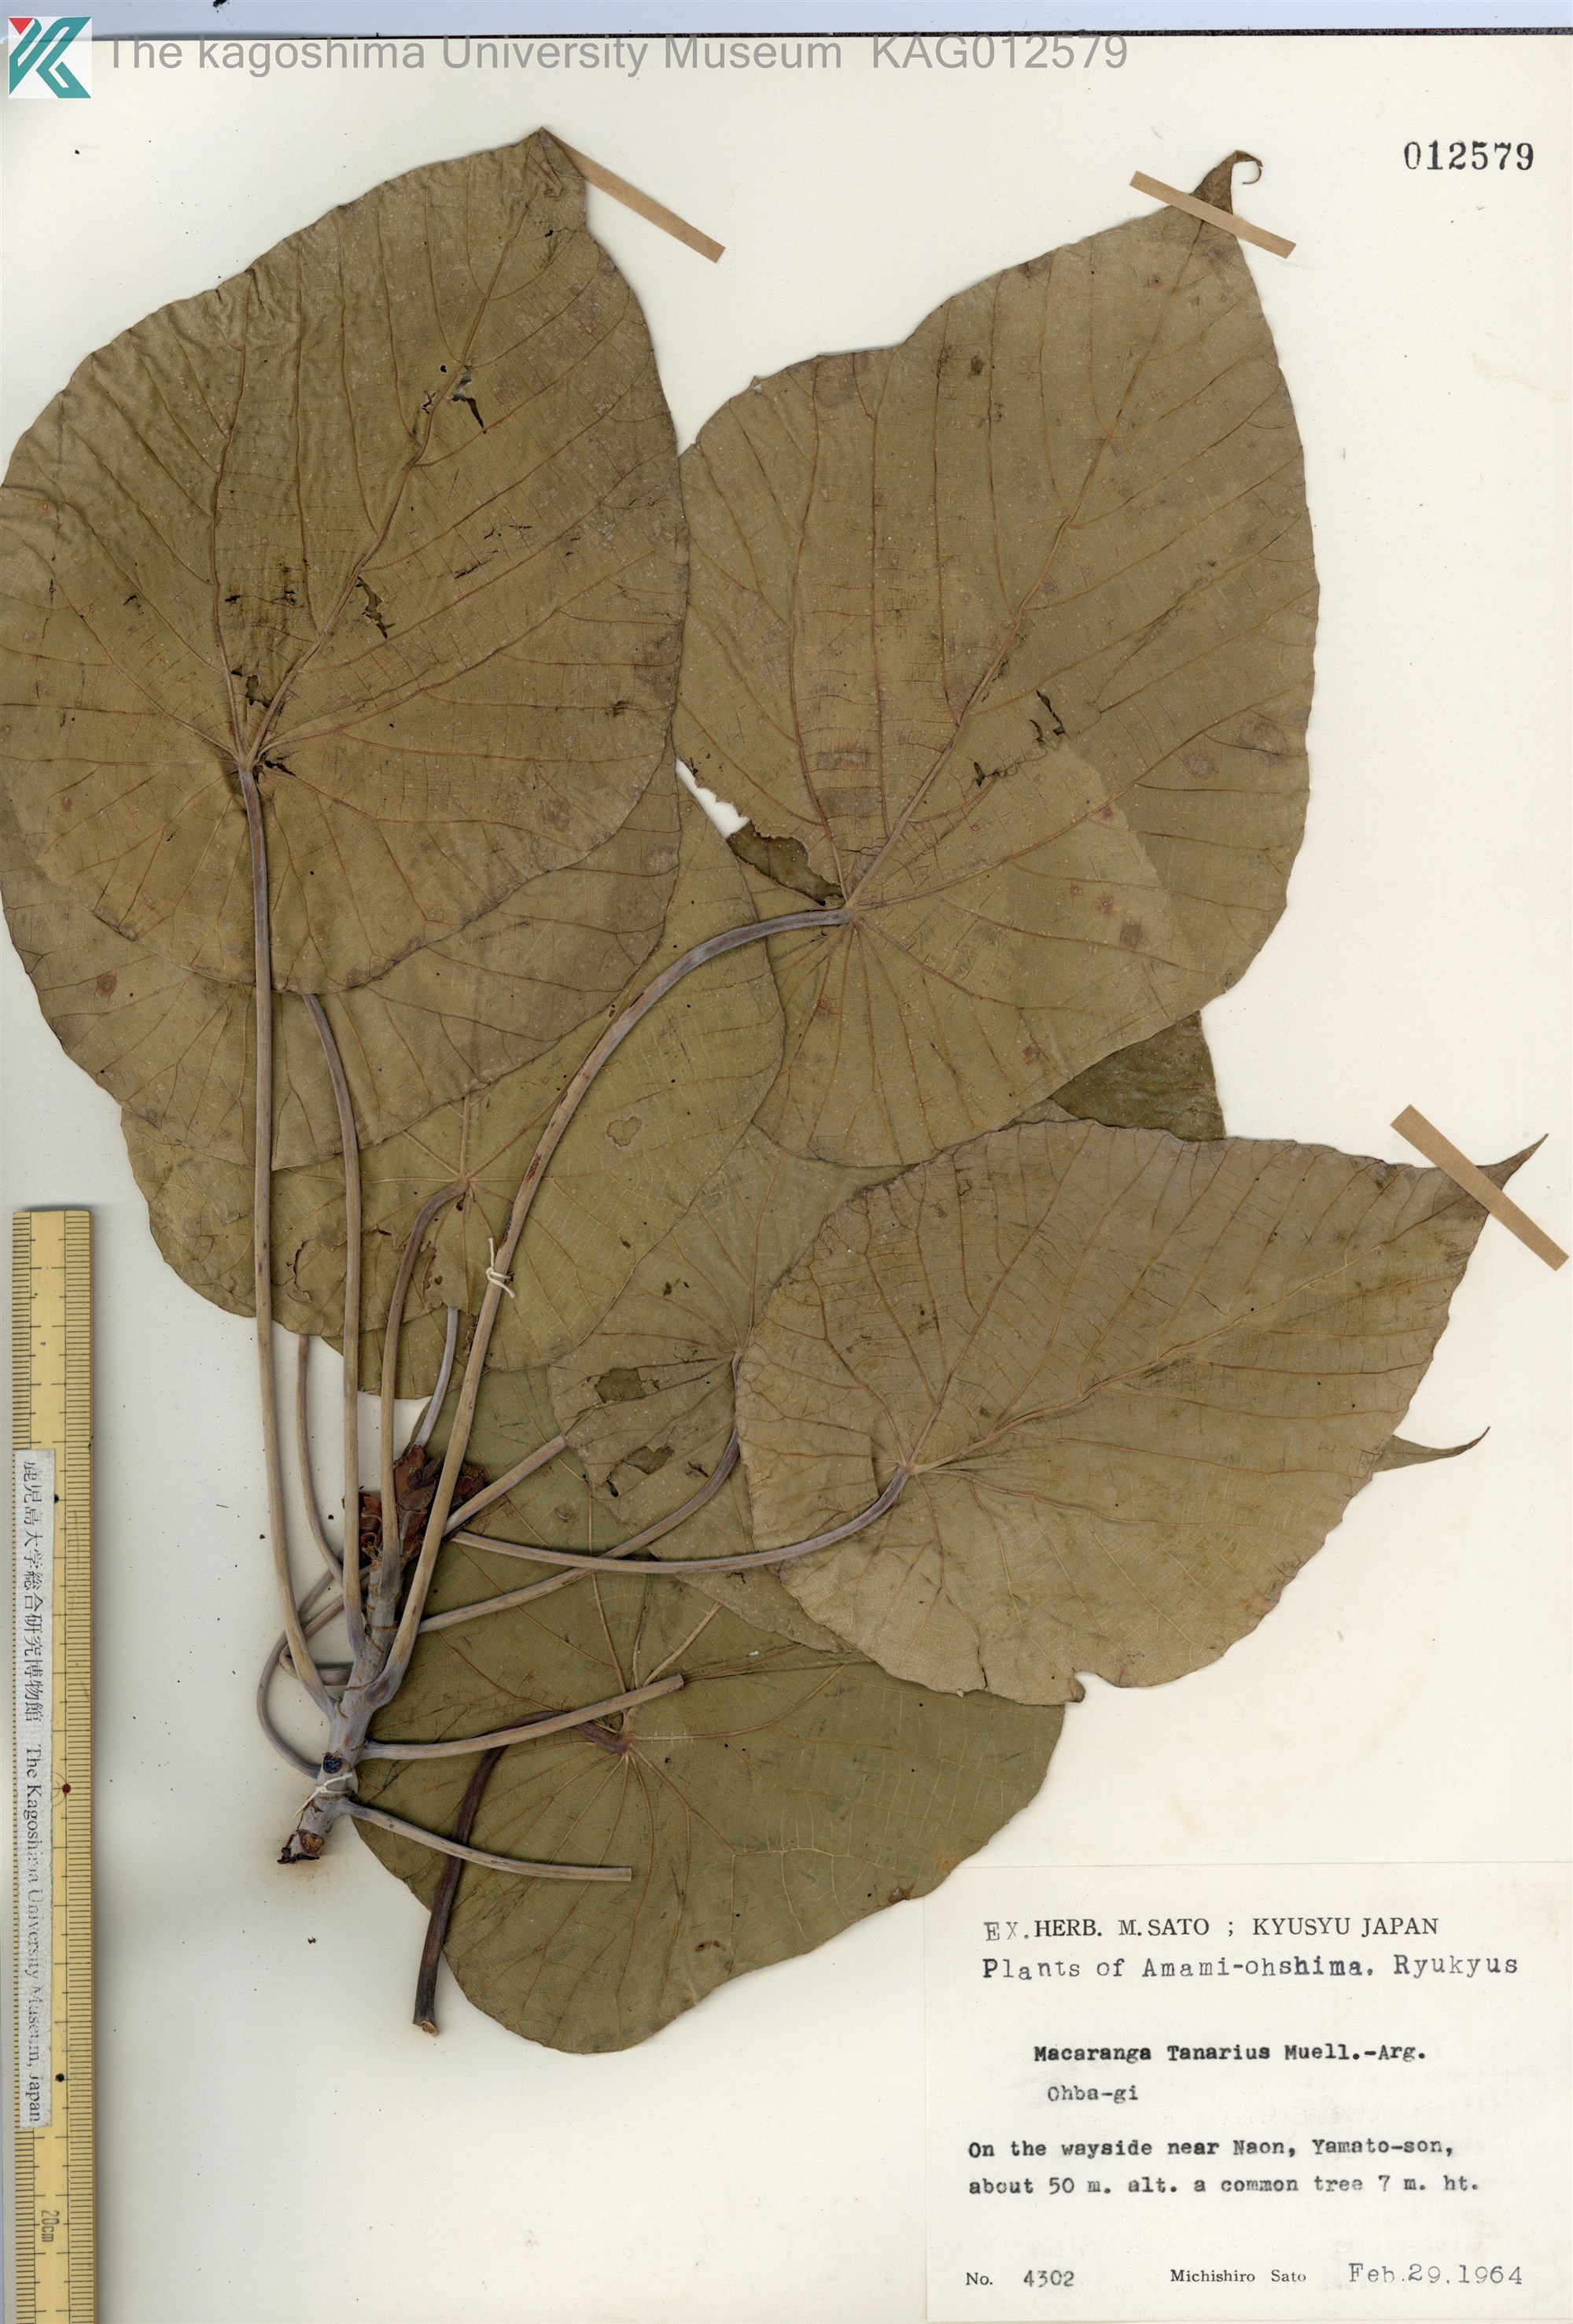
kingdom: Plantae
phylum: Tracheophyta
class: Magnoliopsida
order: Malpighiales
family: Euphorbiaceae
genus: Macaranga
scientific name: Macaranga tanarius
